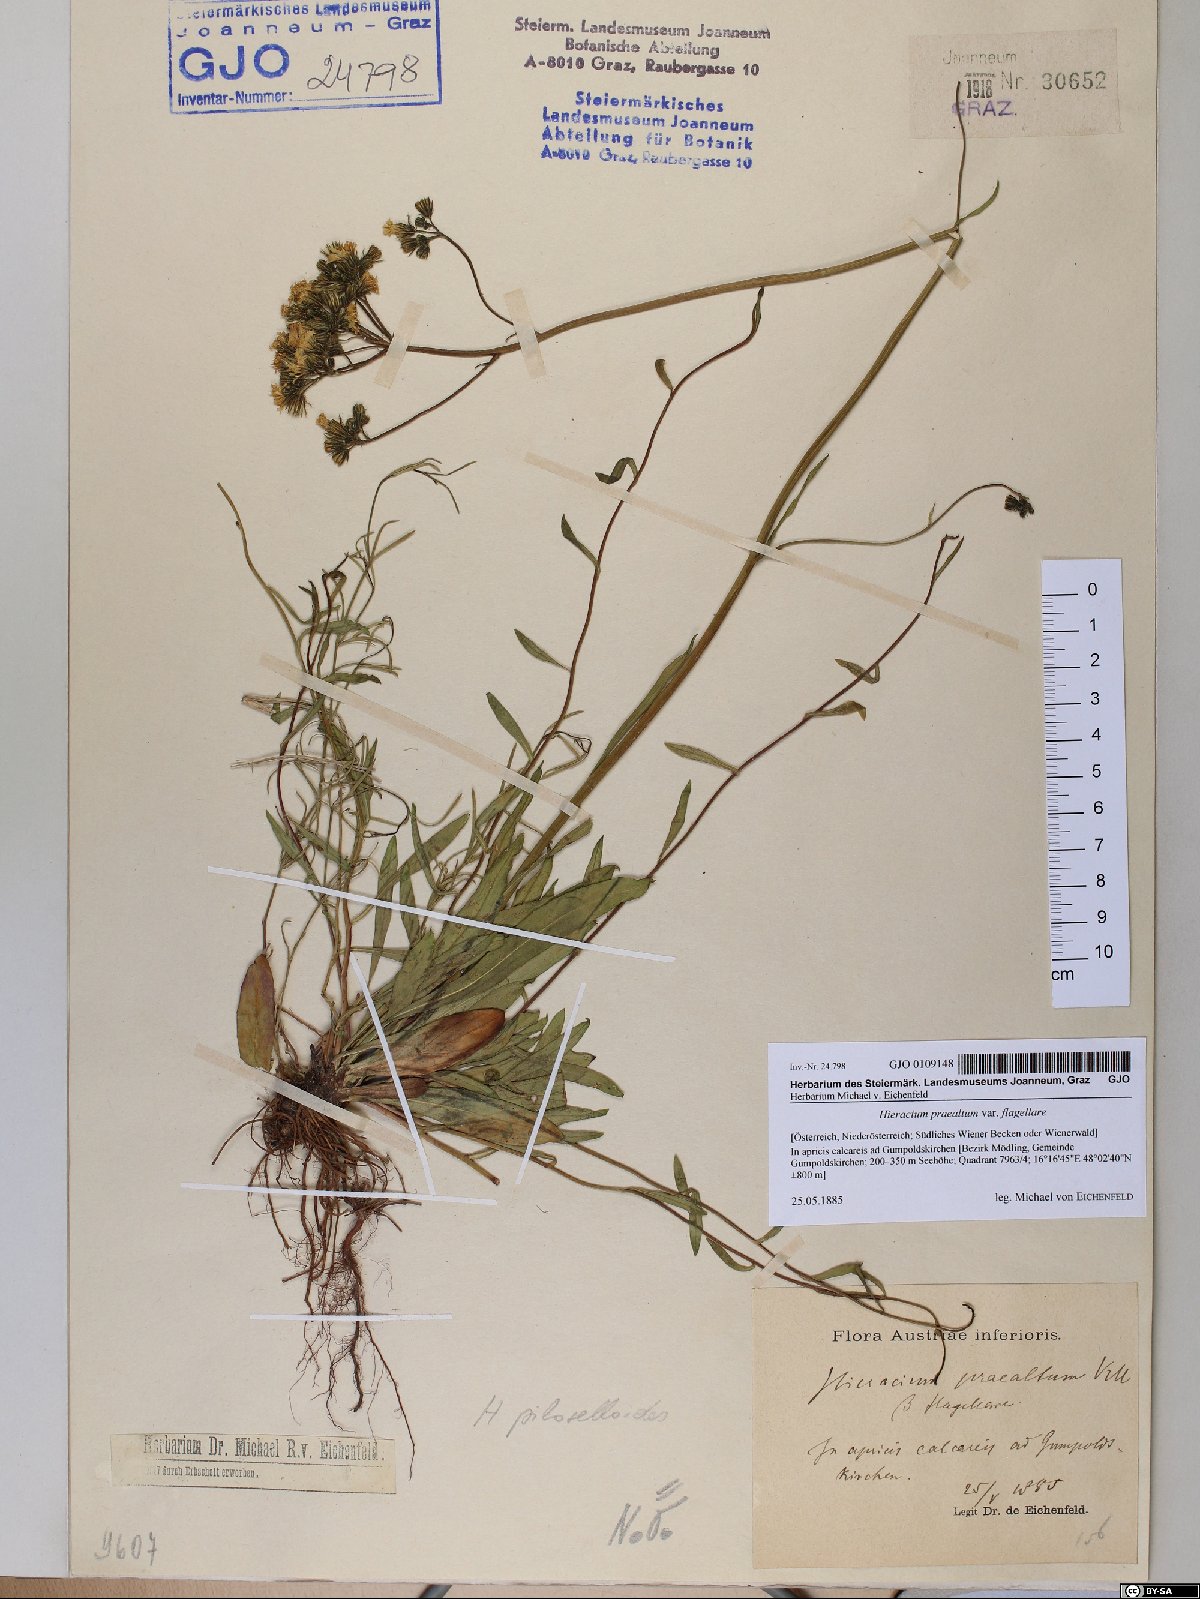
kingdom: Plantae
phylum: Tracheophyta
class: Magnoliopsida
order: Asterales
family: Asteraceae
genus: Hieracium
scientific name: Hieracium praealtum
